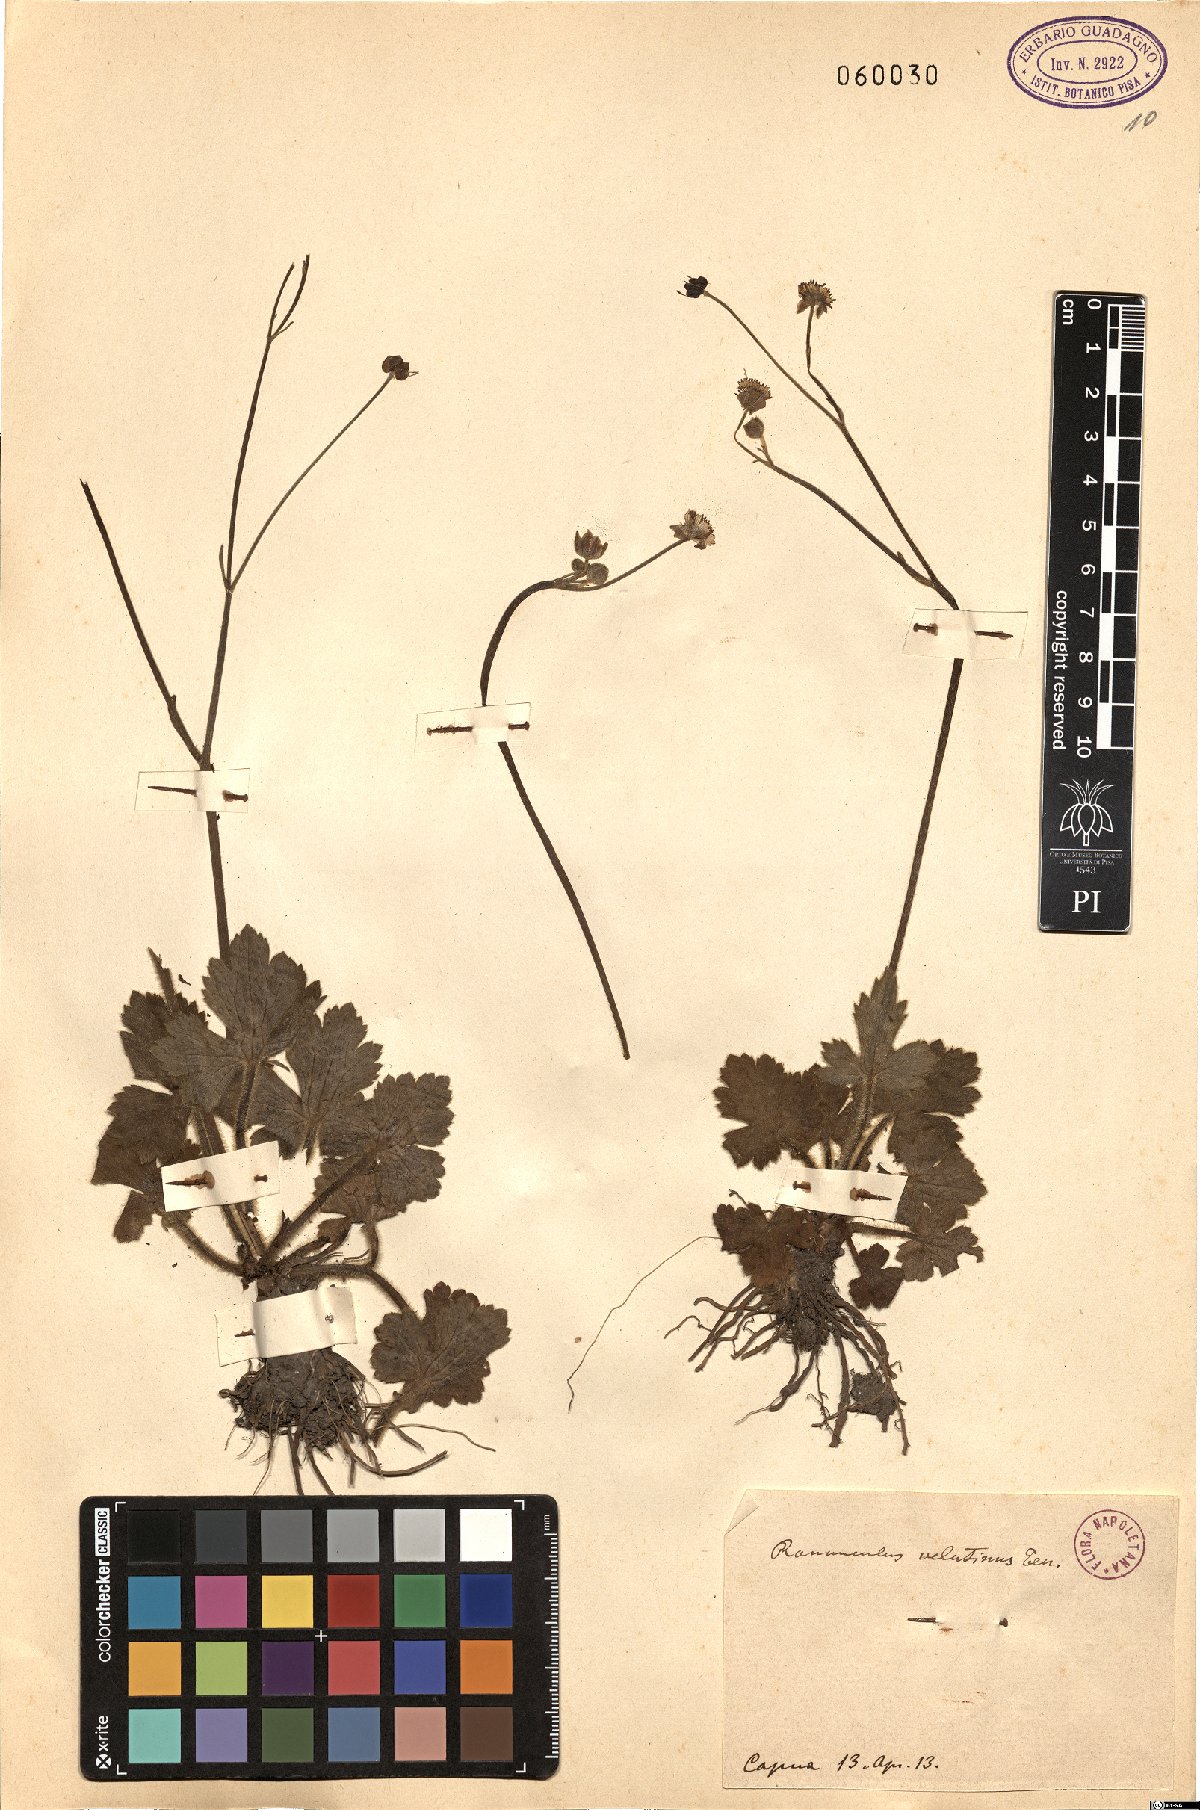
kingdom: Plantae
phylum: Tracheophyta
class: Magnoliopsida
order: Ranunculales
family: Ranunculaceae
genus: Ranunculus
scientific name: Ranunculus velutinus
